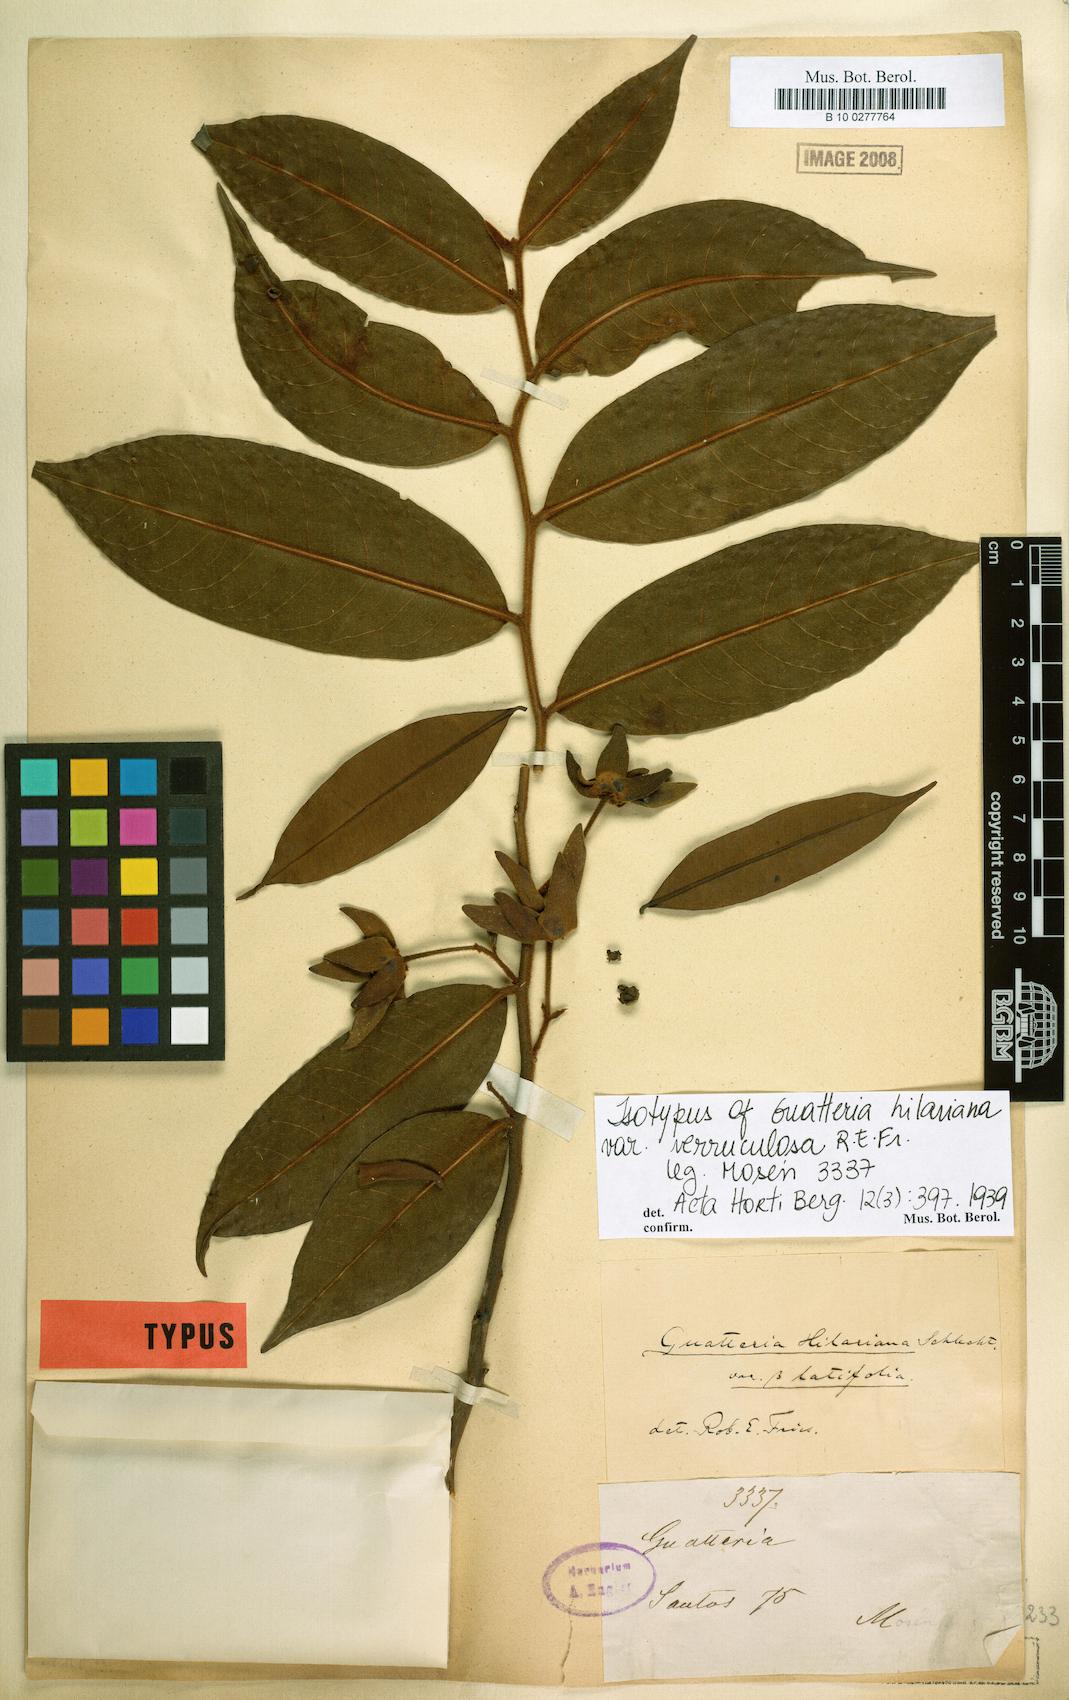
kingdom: Plantae
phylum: Tracheophyta
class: Magnoliopsida
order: Magnoliales
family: Annonaceae
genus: Guatteria
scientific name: Guatteria australis
